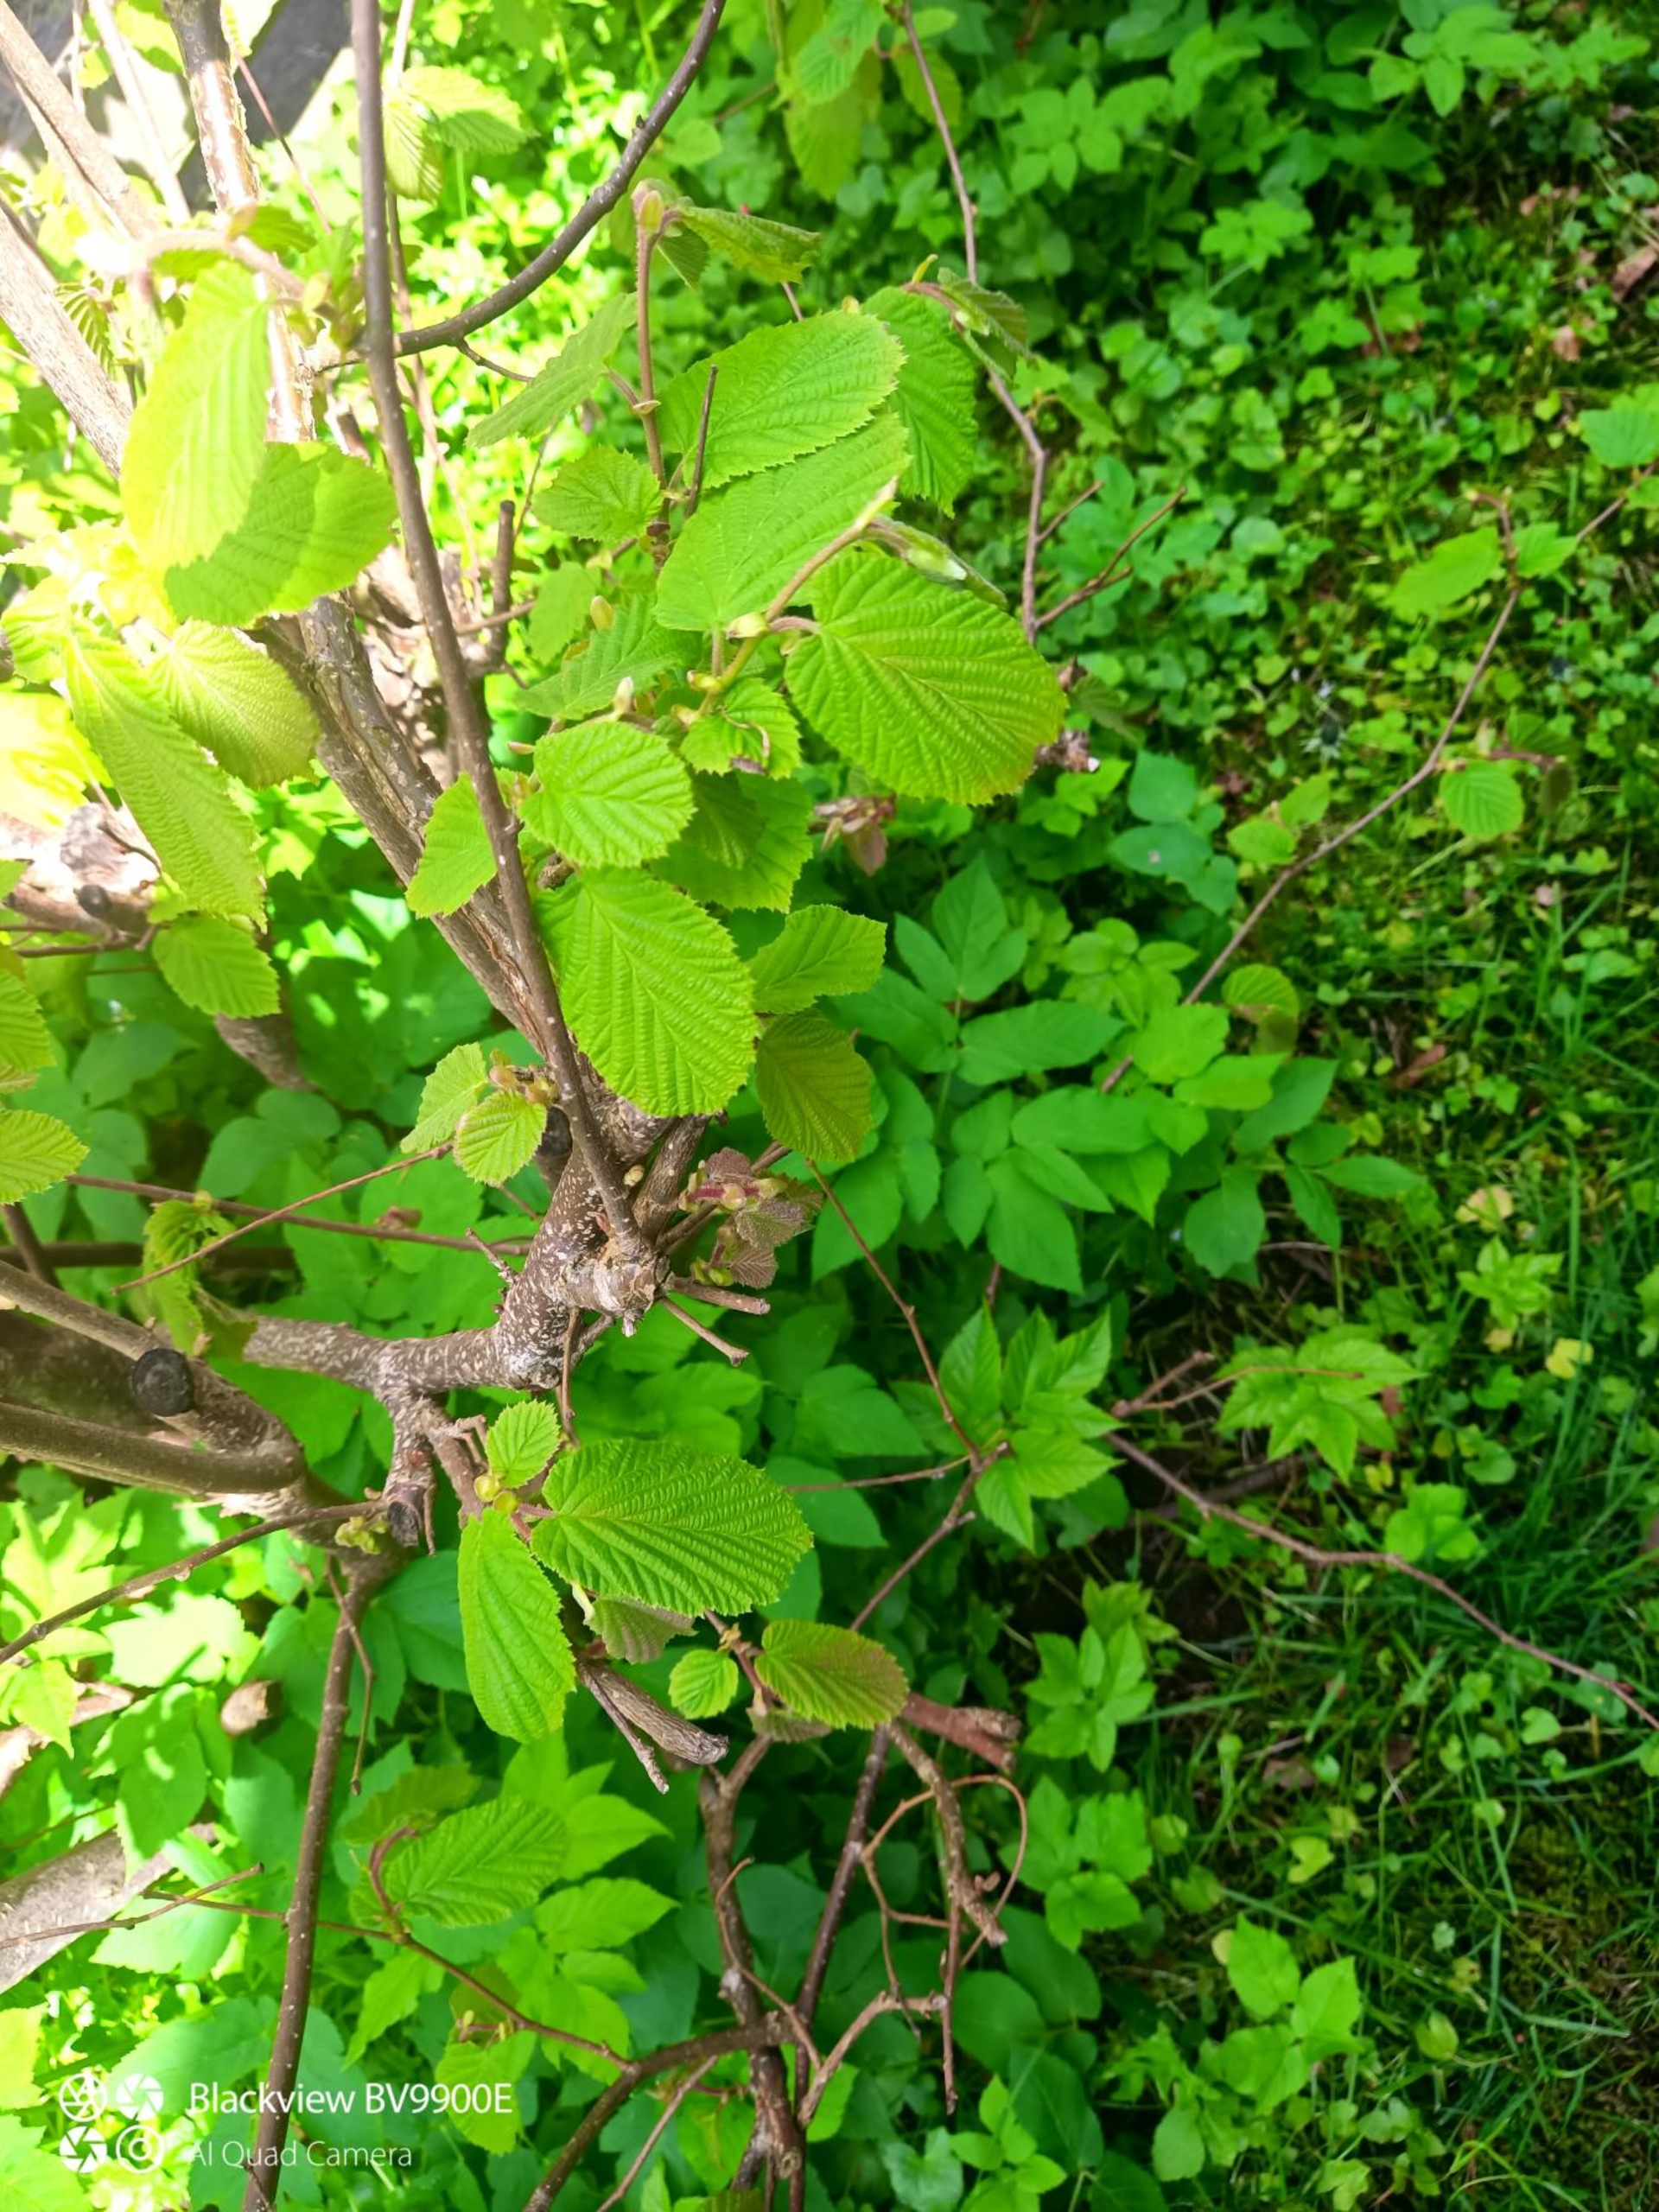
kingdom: Plantae
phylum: Tracheophyta
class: Magnoliopsida
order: Fagales
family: Betulaceae
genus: Corylus
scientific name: Corylus avellana
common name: Hassel
